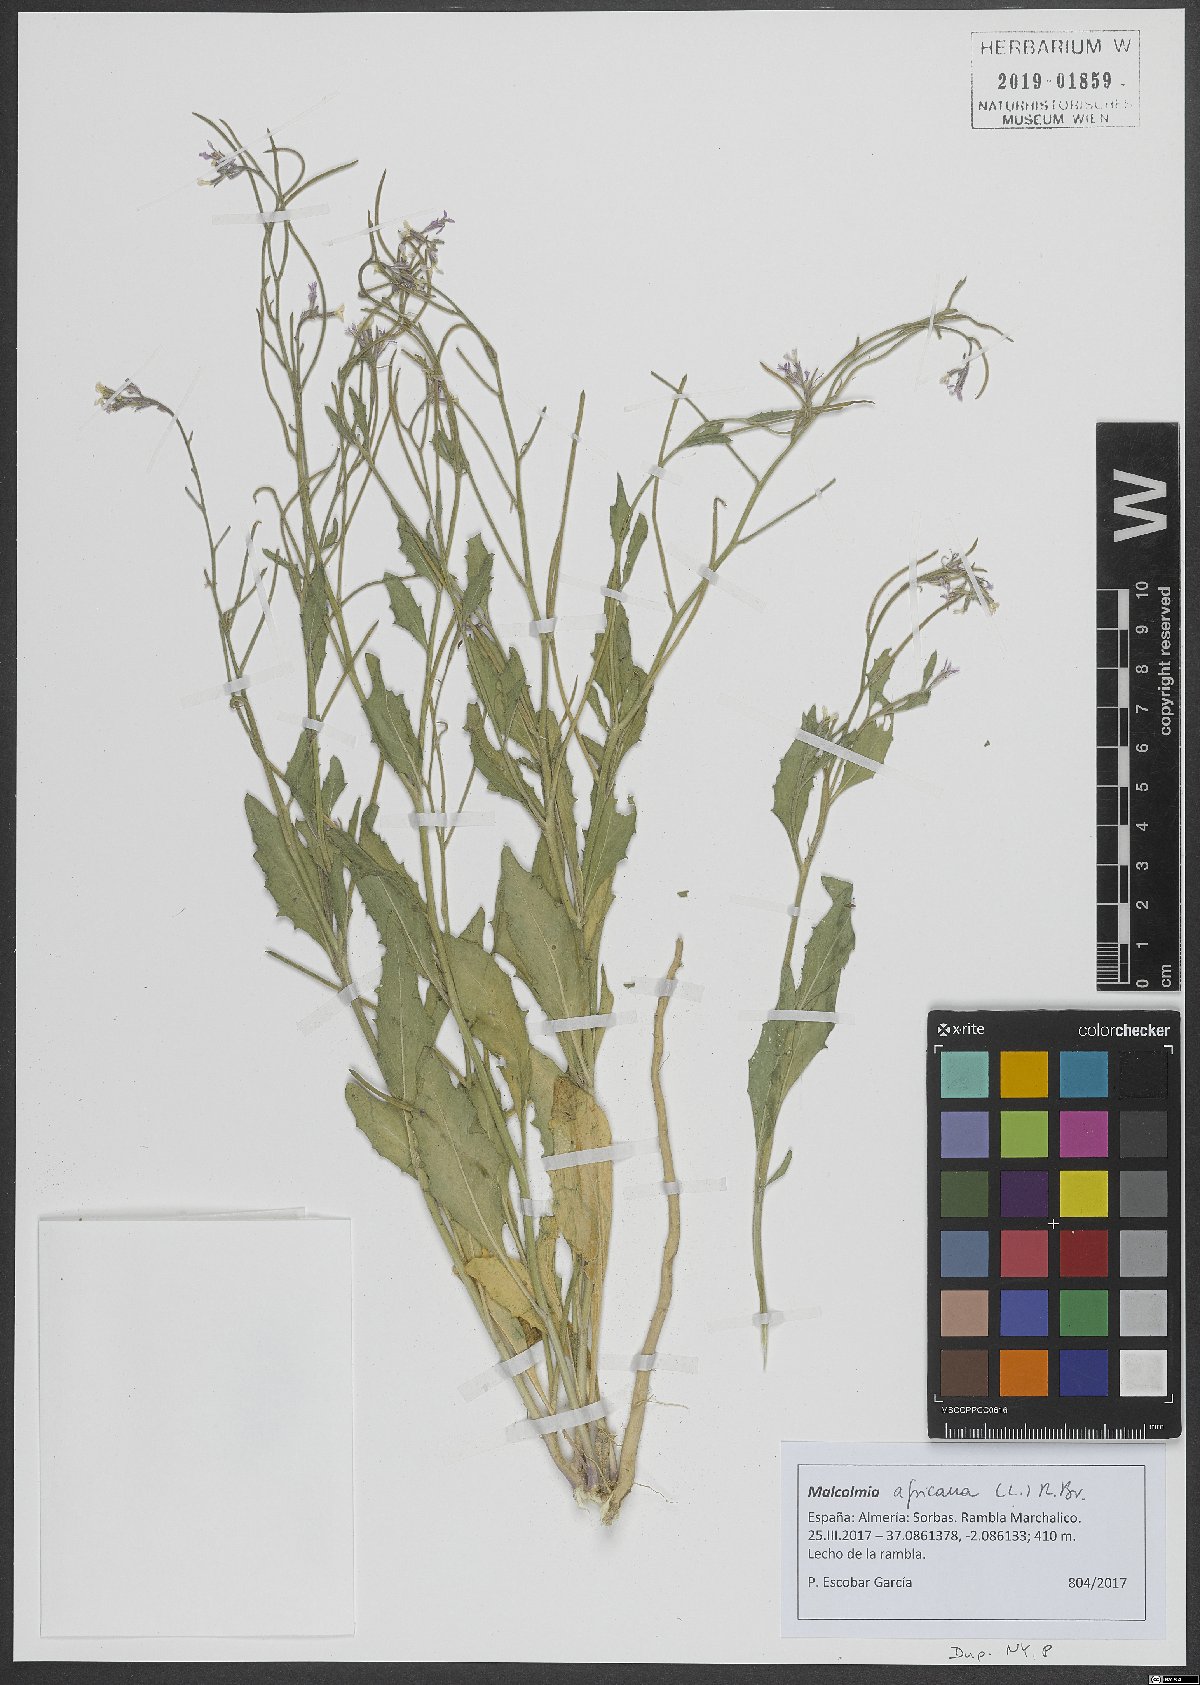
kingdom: Plantae
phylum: Tracheophyta
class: Magnoliopsida
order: Brassicales
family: Brassicaceae
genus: Malcolmia
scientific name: Malcolmia africana
